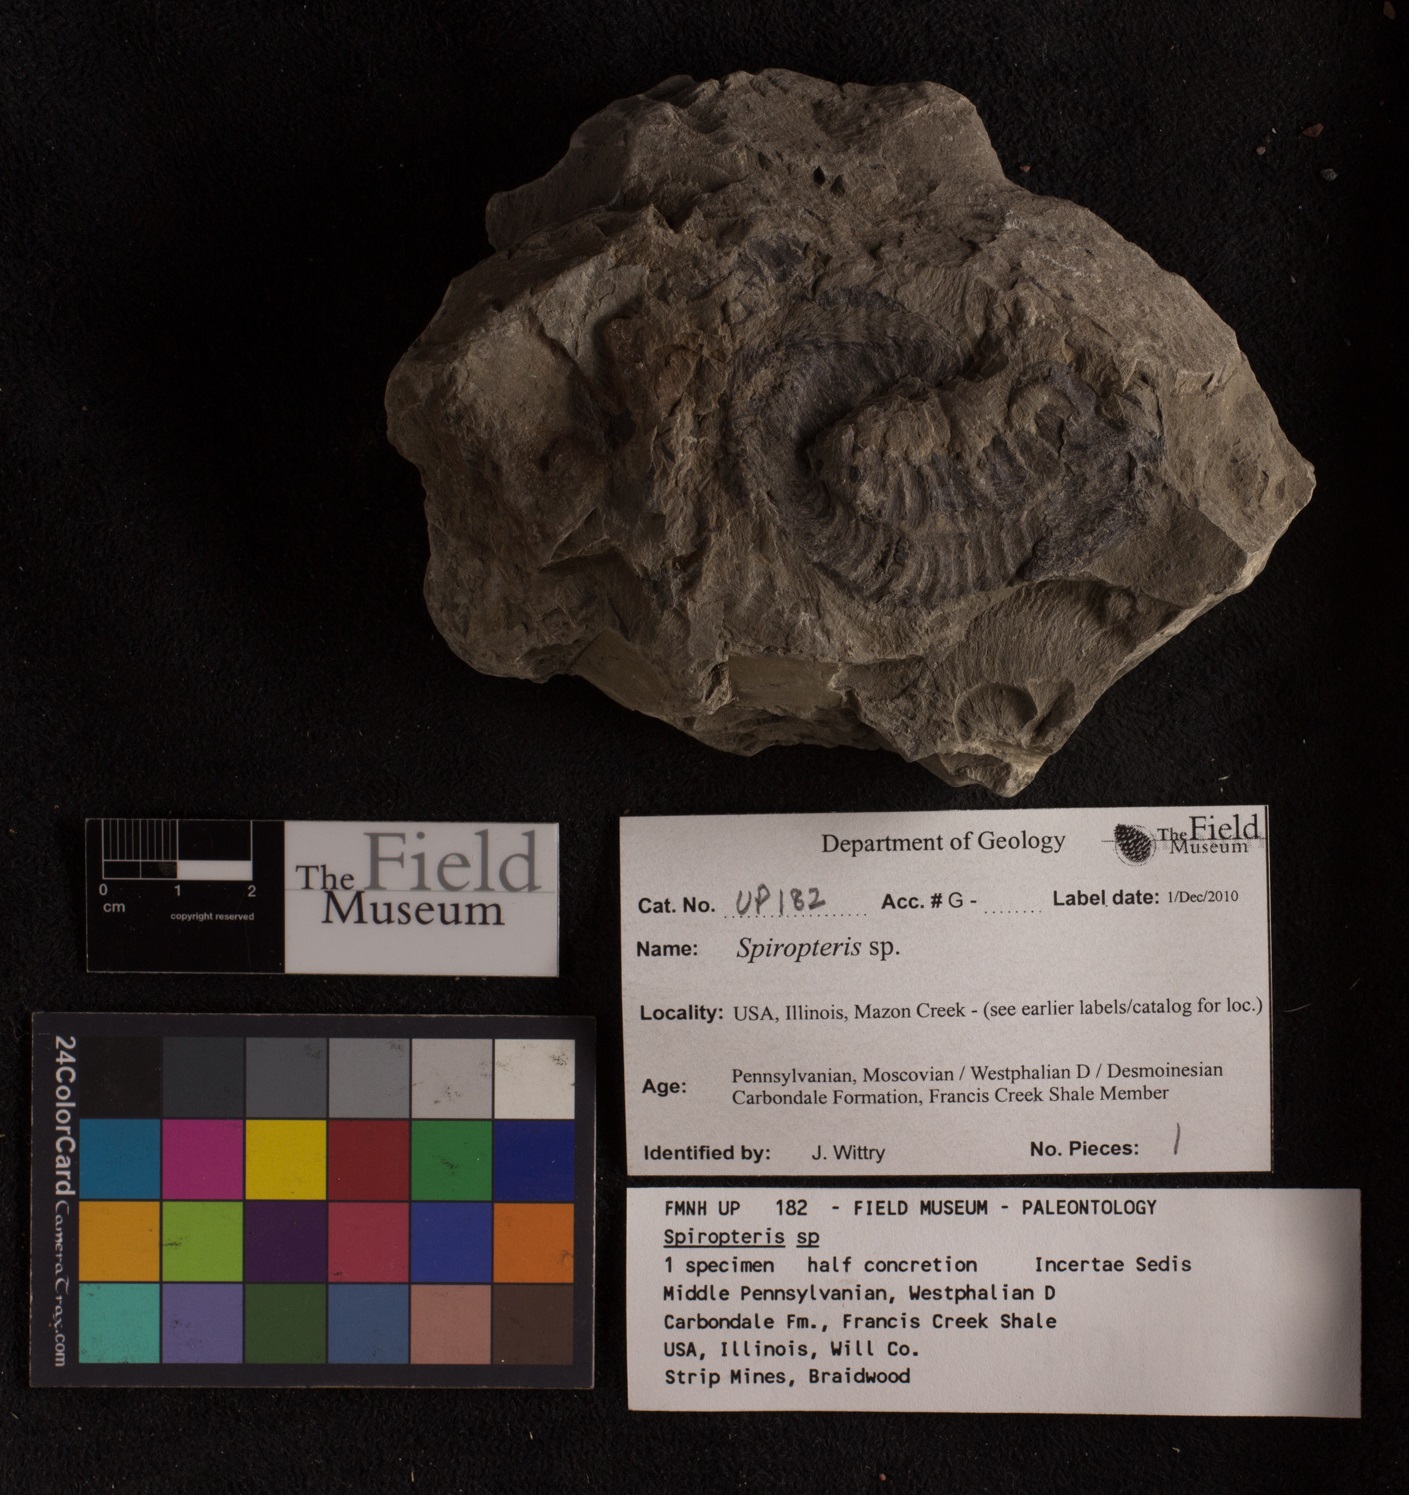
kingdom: Plantae
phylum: Tracheophyta
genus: Spiropteris
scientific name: Spiropteris
